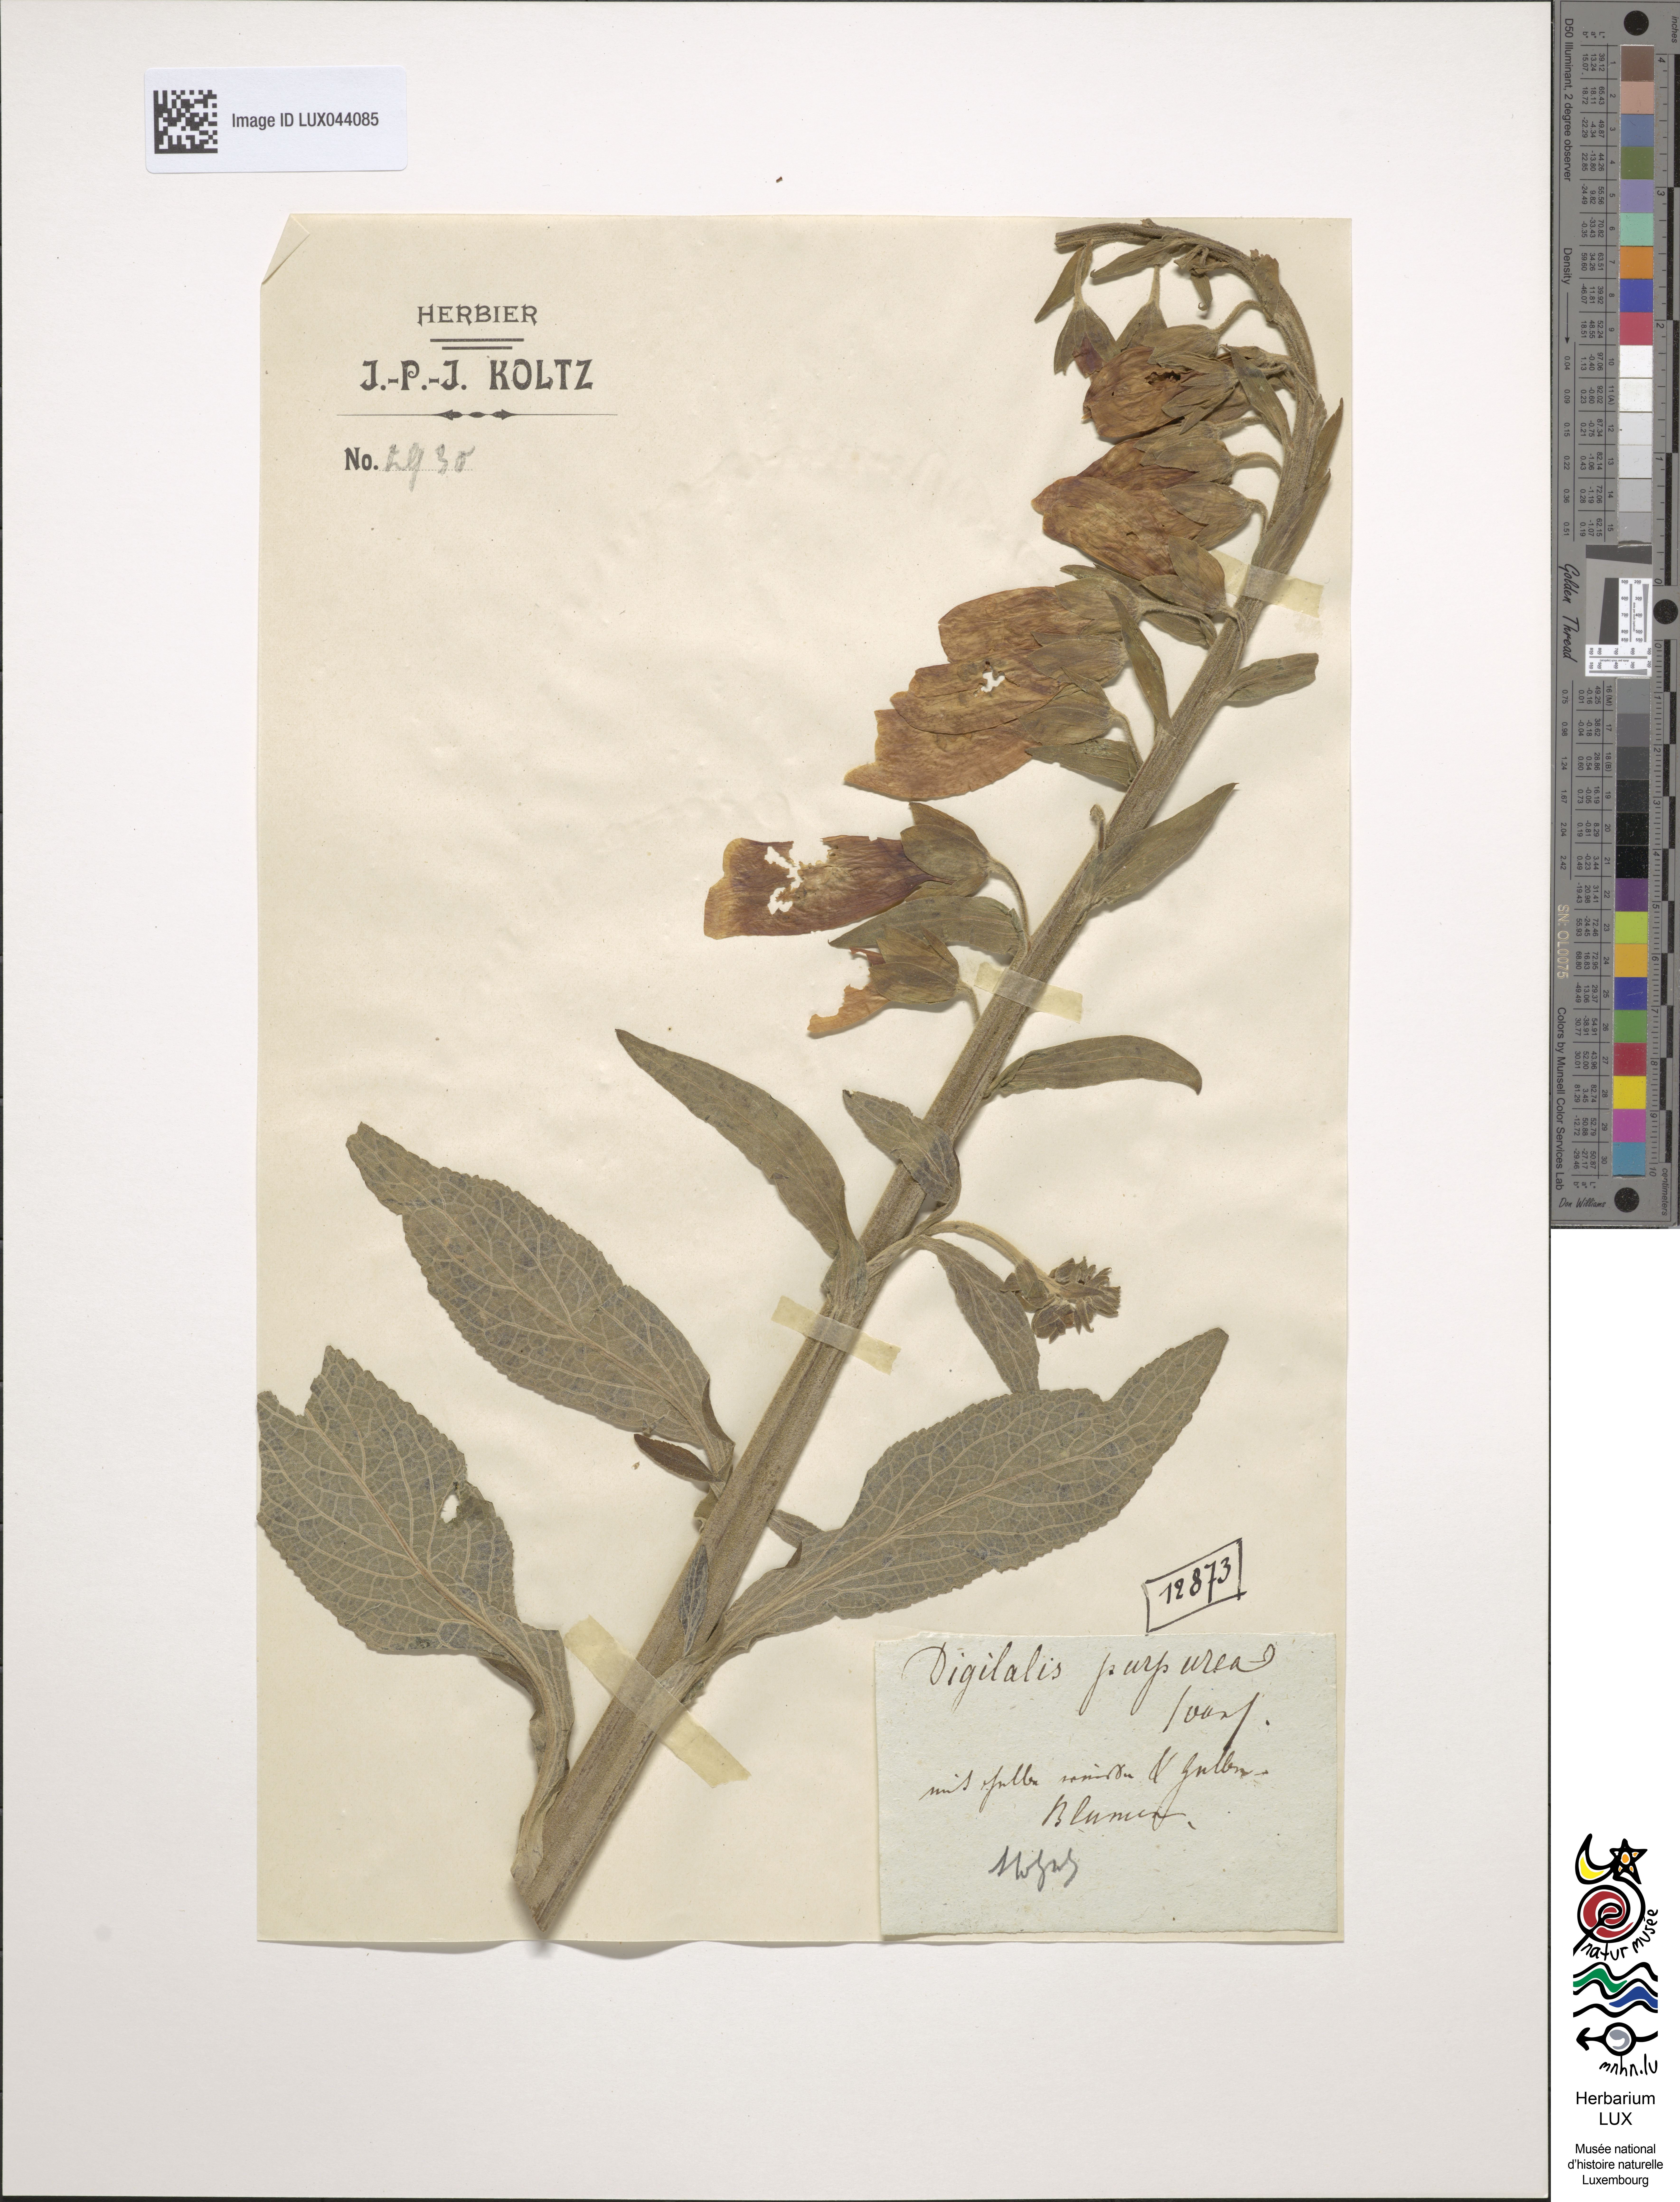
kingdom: Plantae
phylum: Tracheophyta
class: Magnoliopsida
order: Lamiales
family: Plantaginaceae
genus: Digitalis
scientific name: Digitalis purpurea
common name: Foxglove
